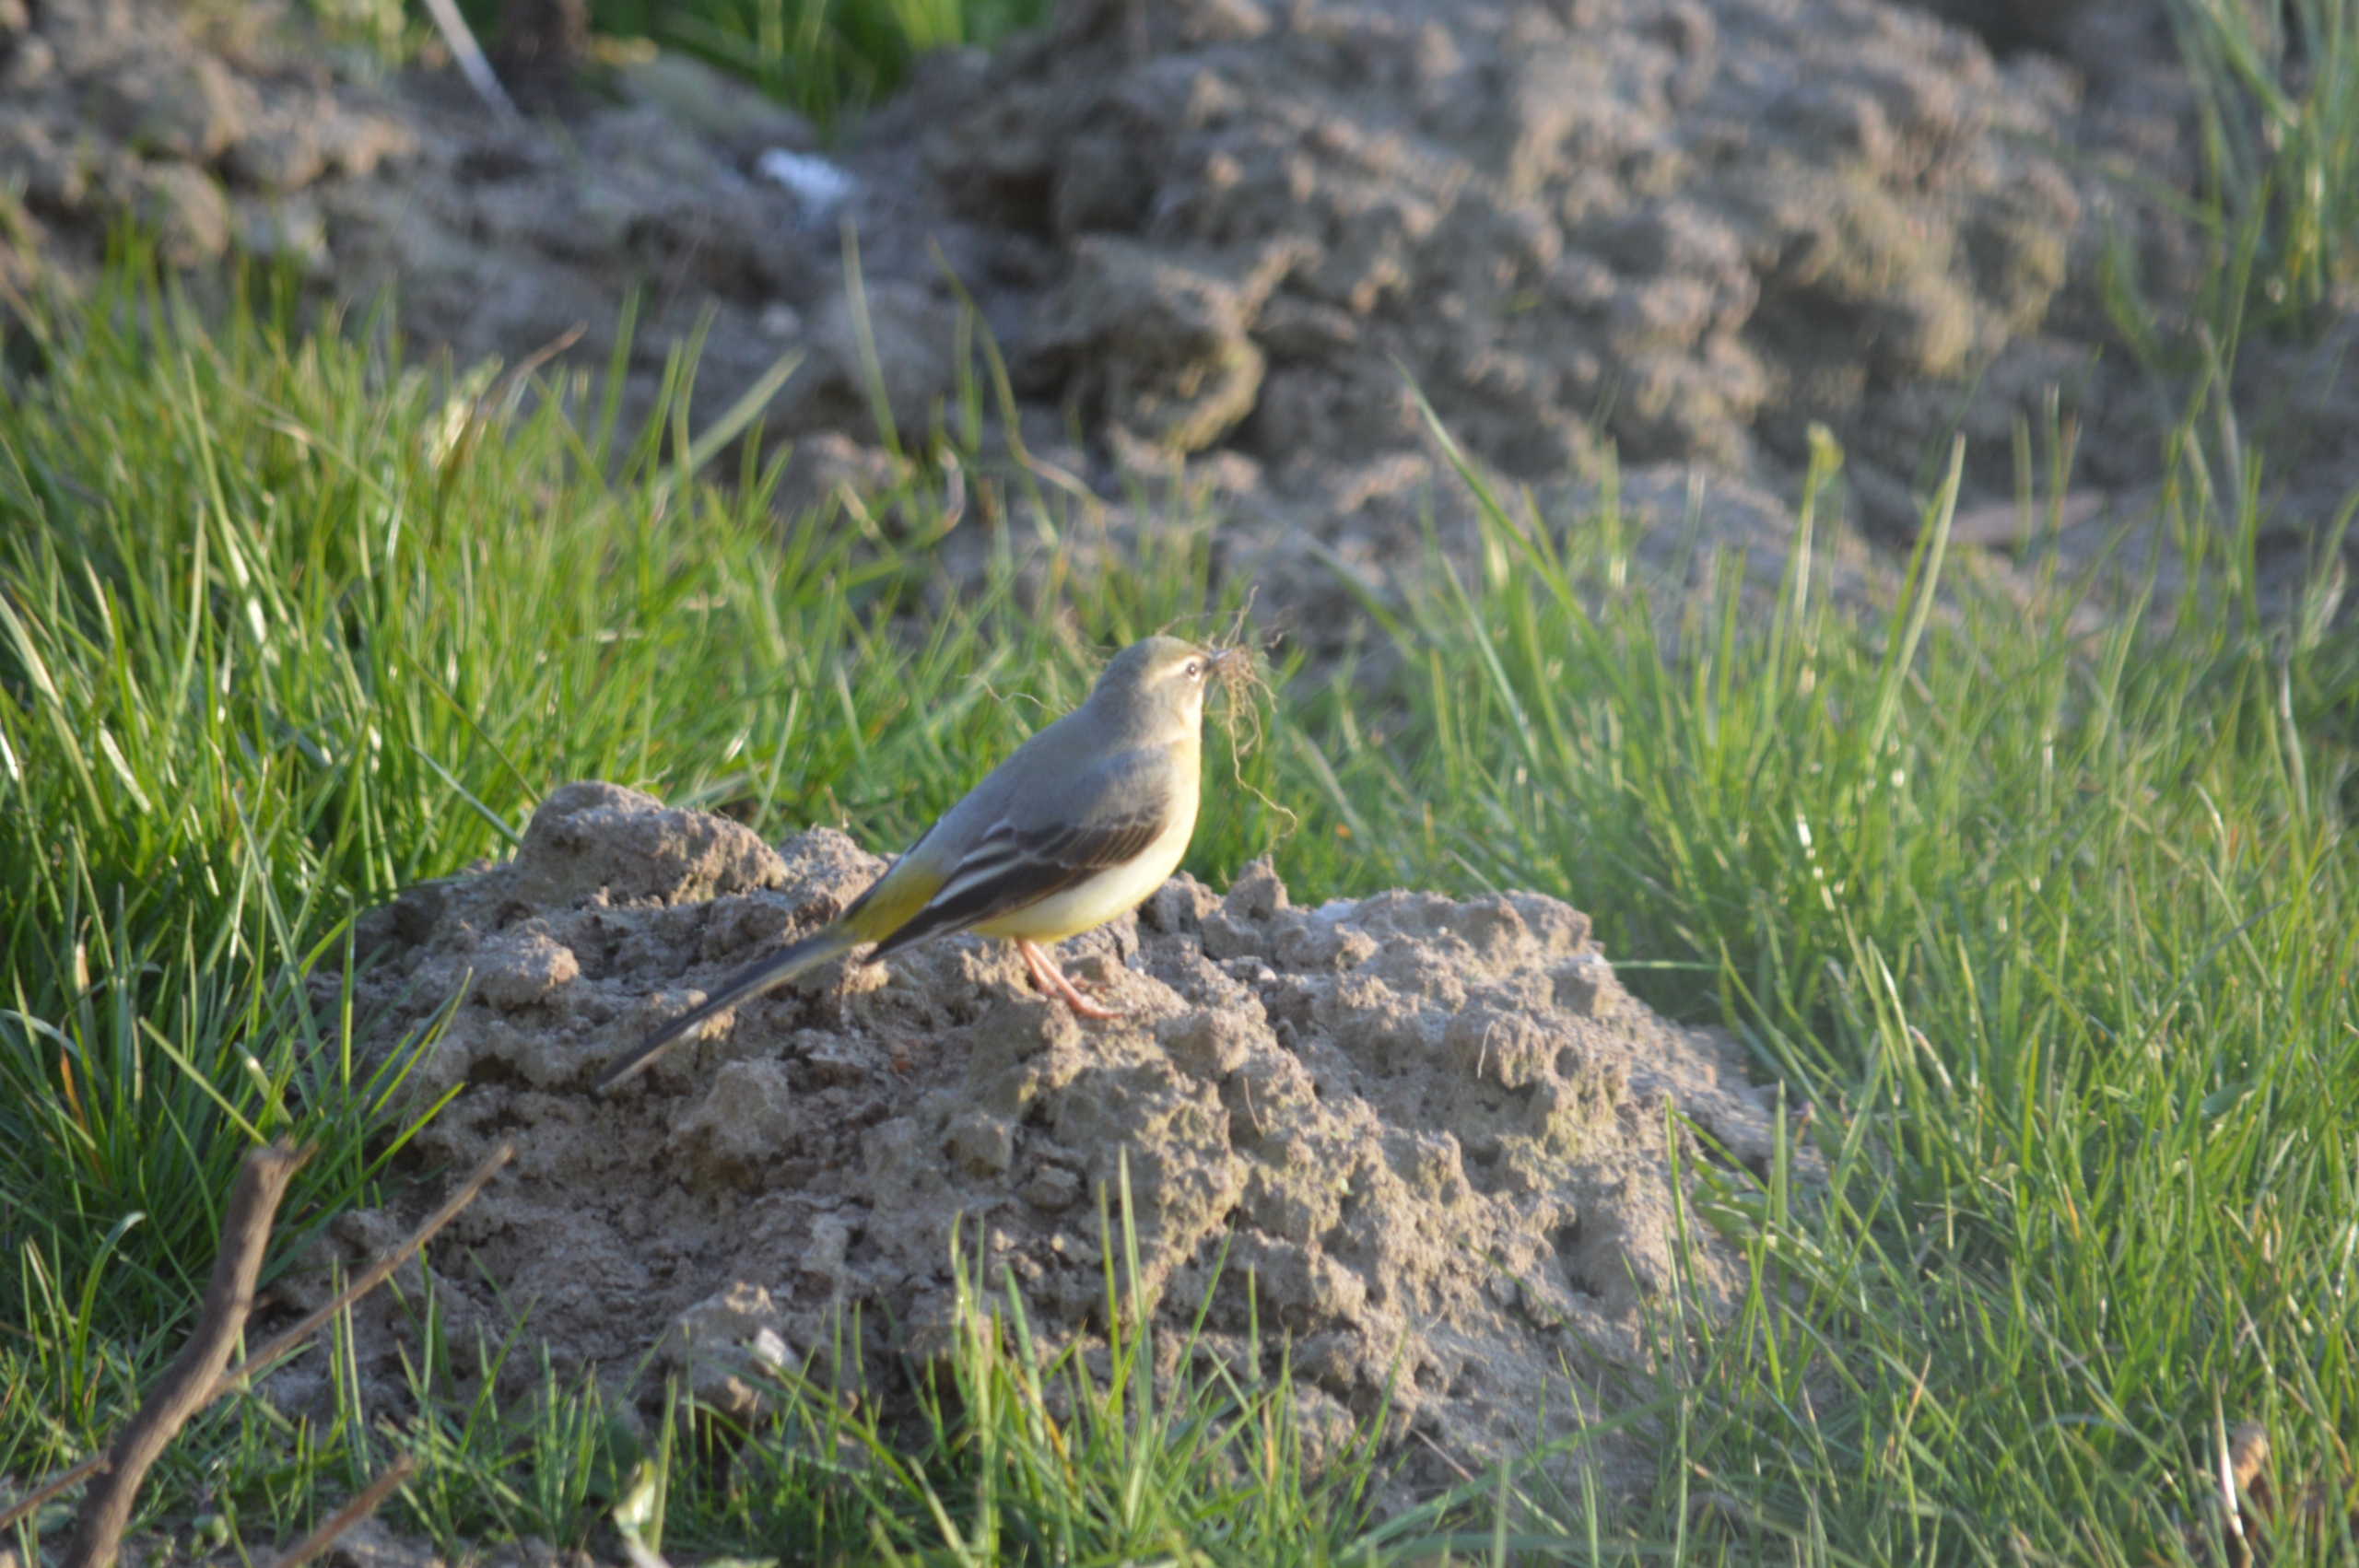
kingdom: Animalia
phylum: Chordata
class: Aves
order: Passeriformes
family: Motacillidae
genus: Motacilla
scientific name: Motacilla cinerea
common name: Bjergvipstjert
